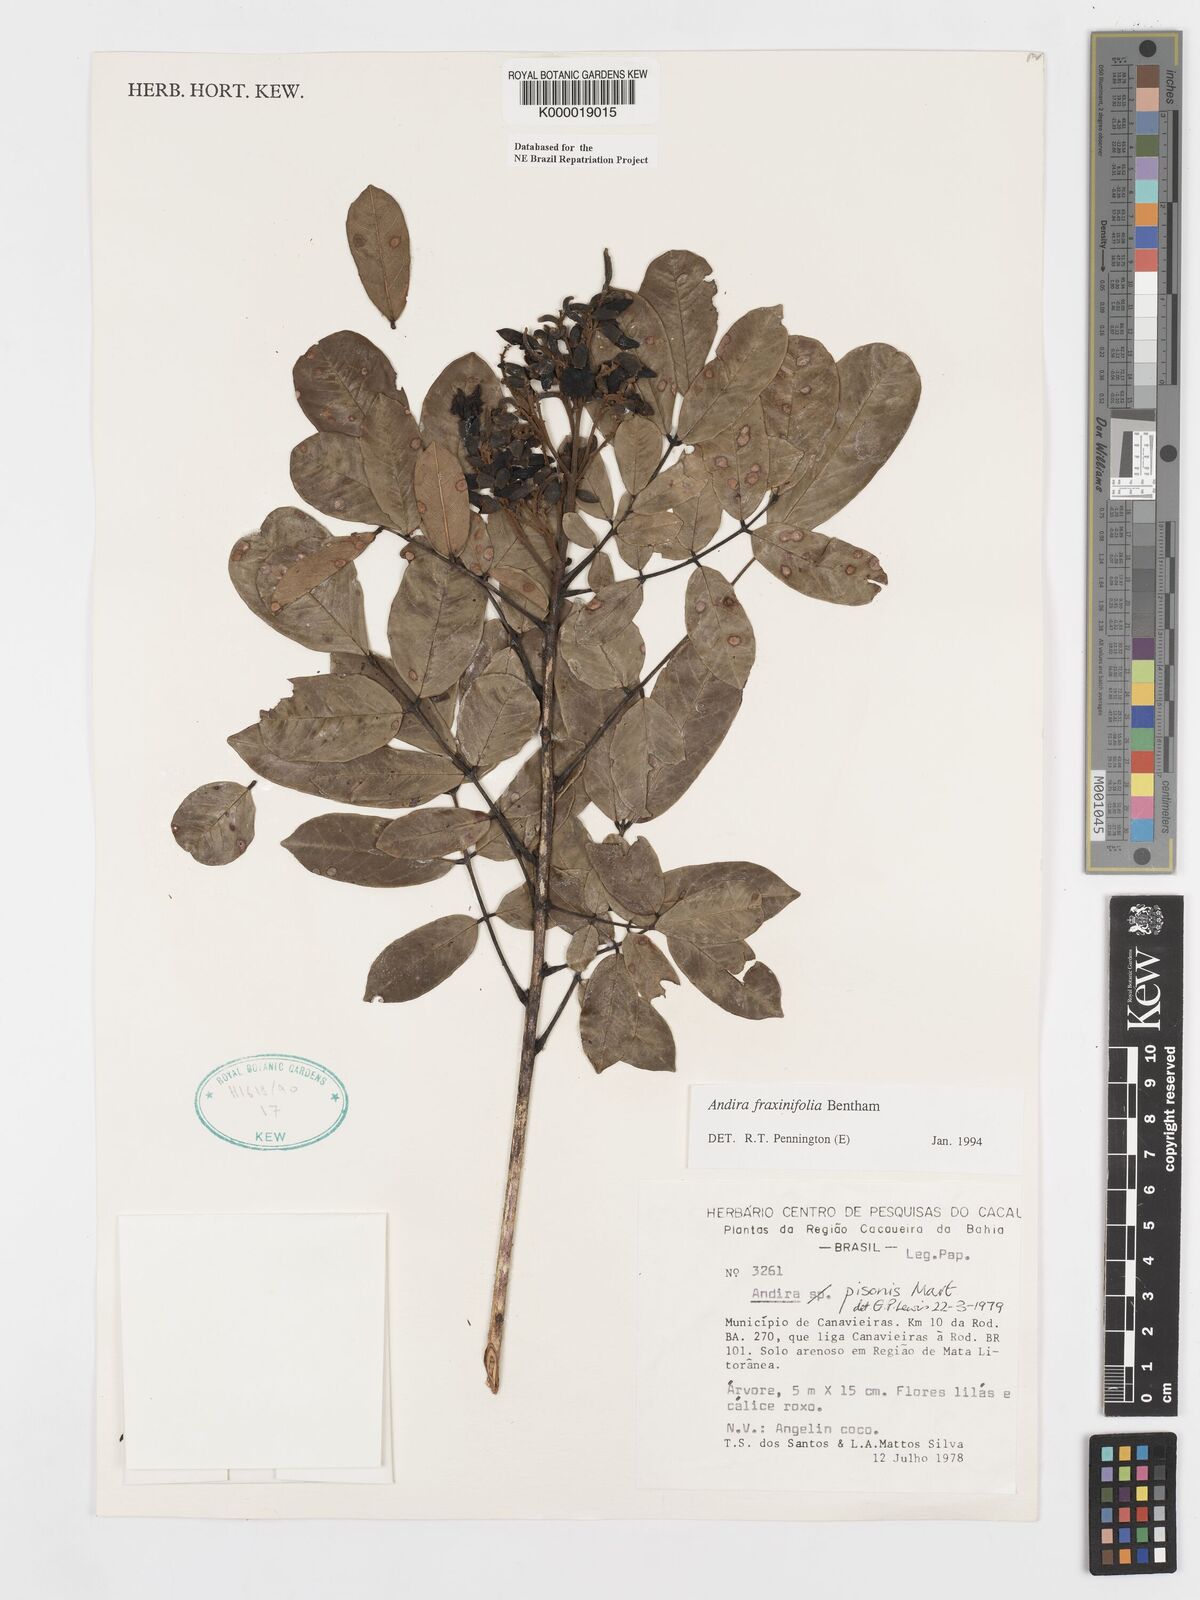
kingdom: Plantae
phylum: Tracheophyta
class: Magnoliopsida
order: Fabales
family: Fabaceae
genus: Andira
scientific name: Andira fraxinifolia
